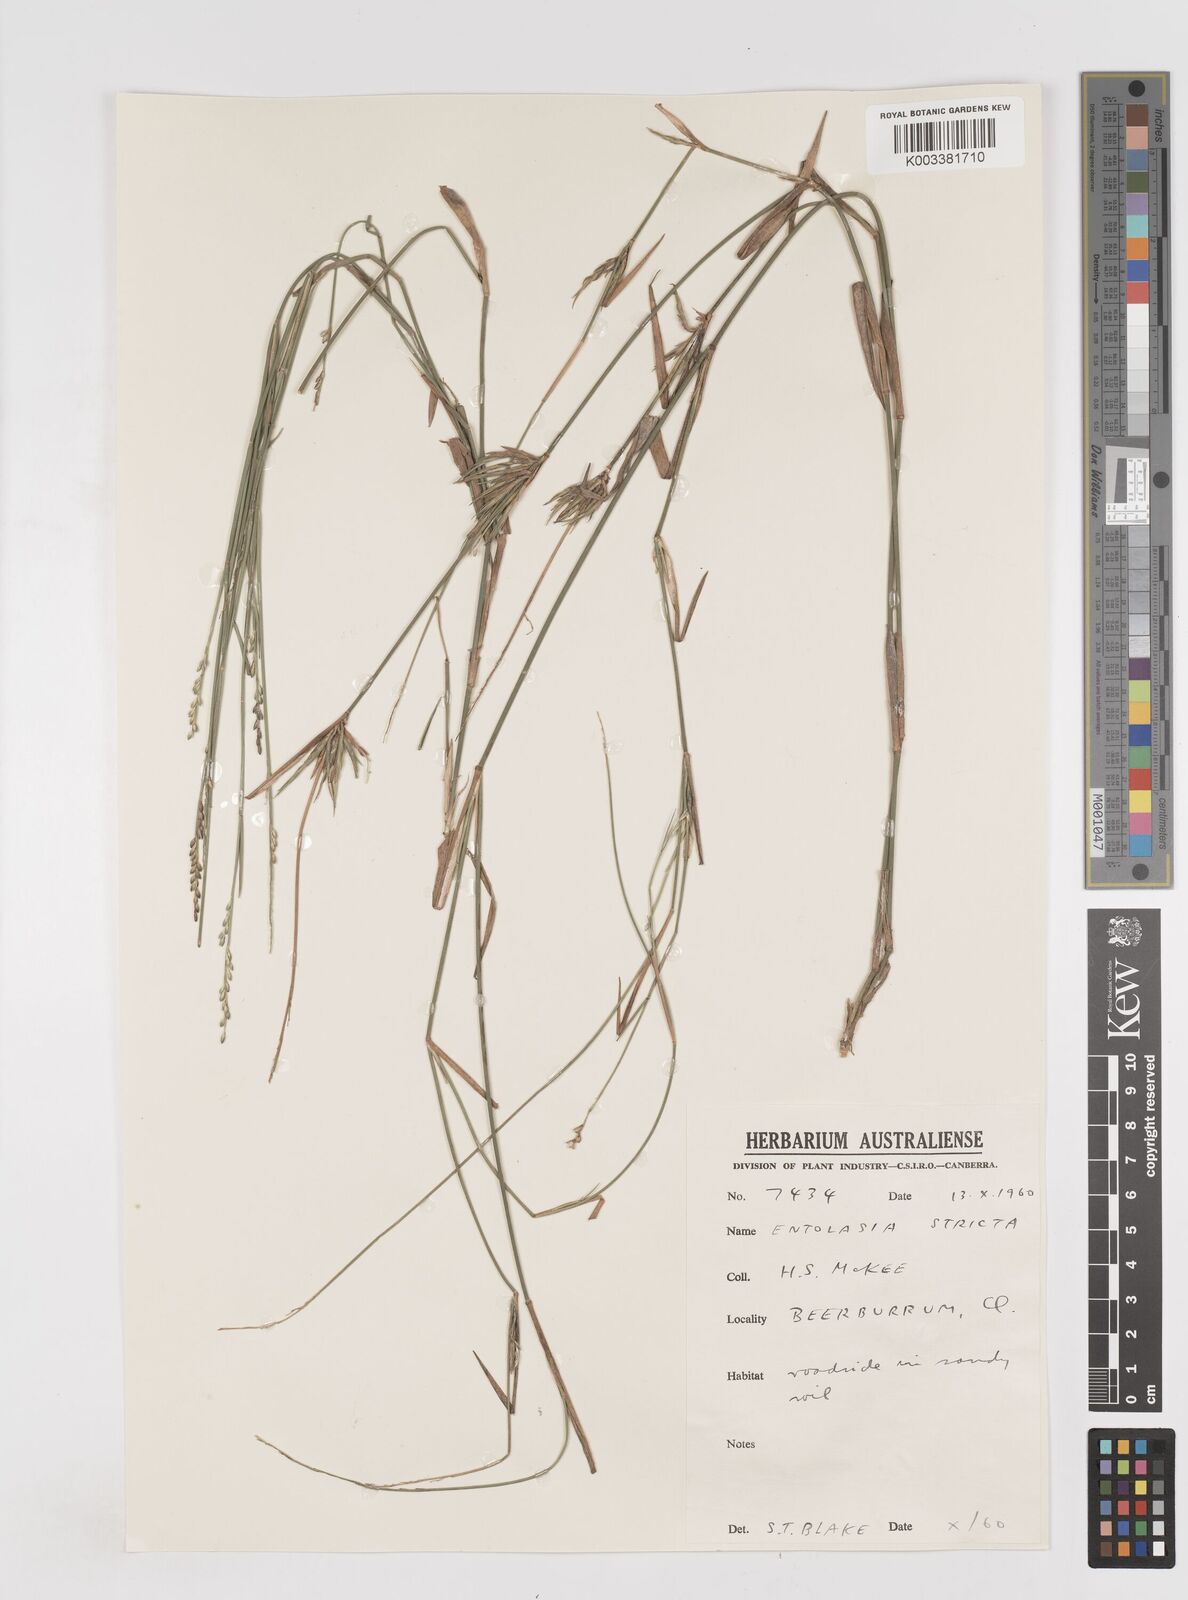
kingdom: Plantae
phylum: Tracheophyta
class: Liliopsida
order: Poales
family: Poaceae
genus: Entolasia
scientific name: Entolasia stricta
